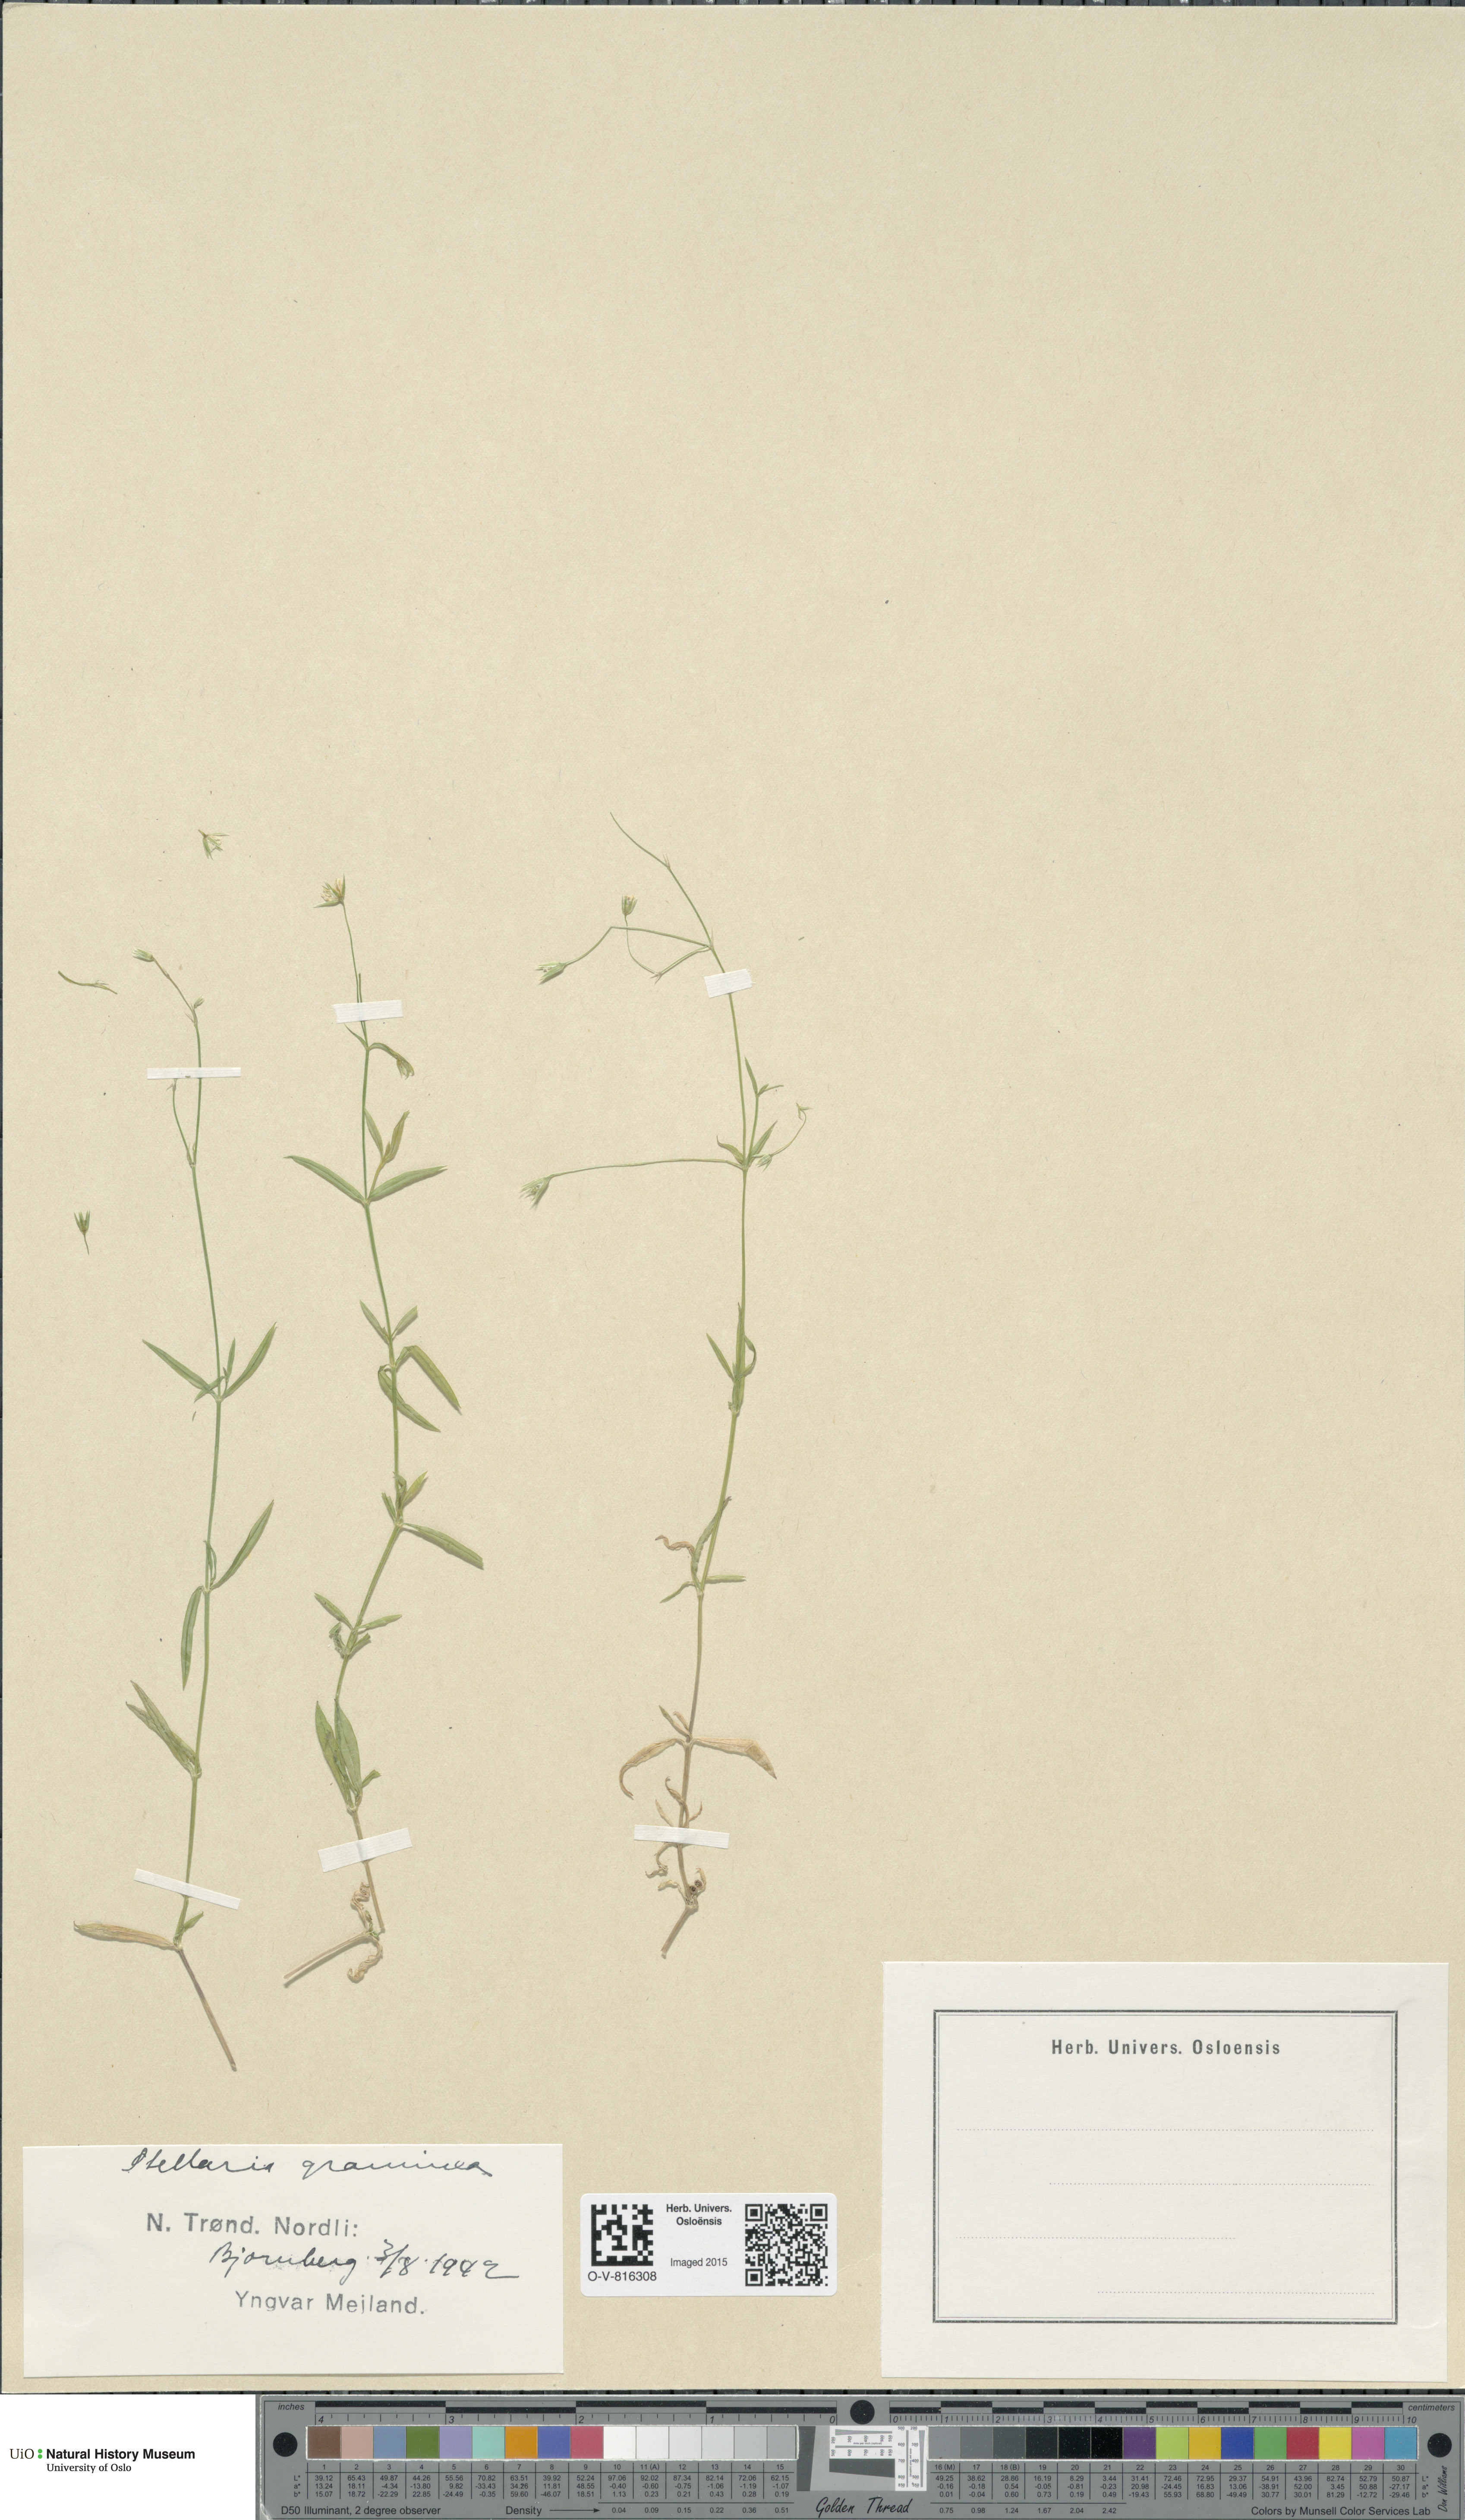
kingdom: Plantae
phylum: Tracheophyta
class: Magnoliopsida
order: Caryophyllales
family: Caryophyllaceae
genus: Stellaria
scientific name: Stellaria graminea
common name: Grass-like starwort
